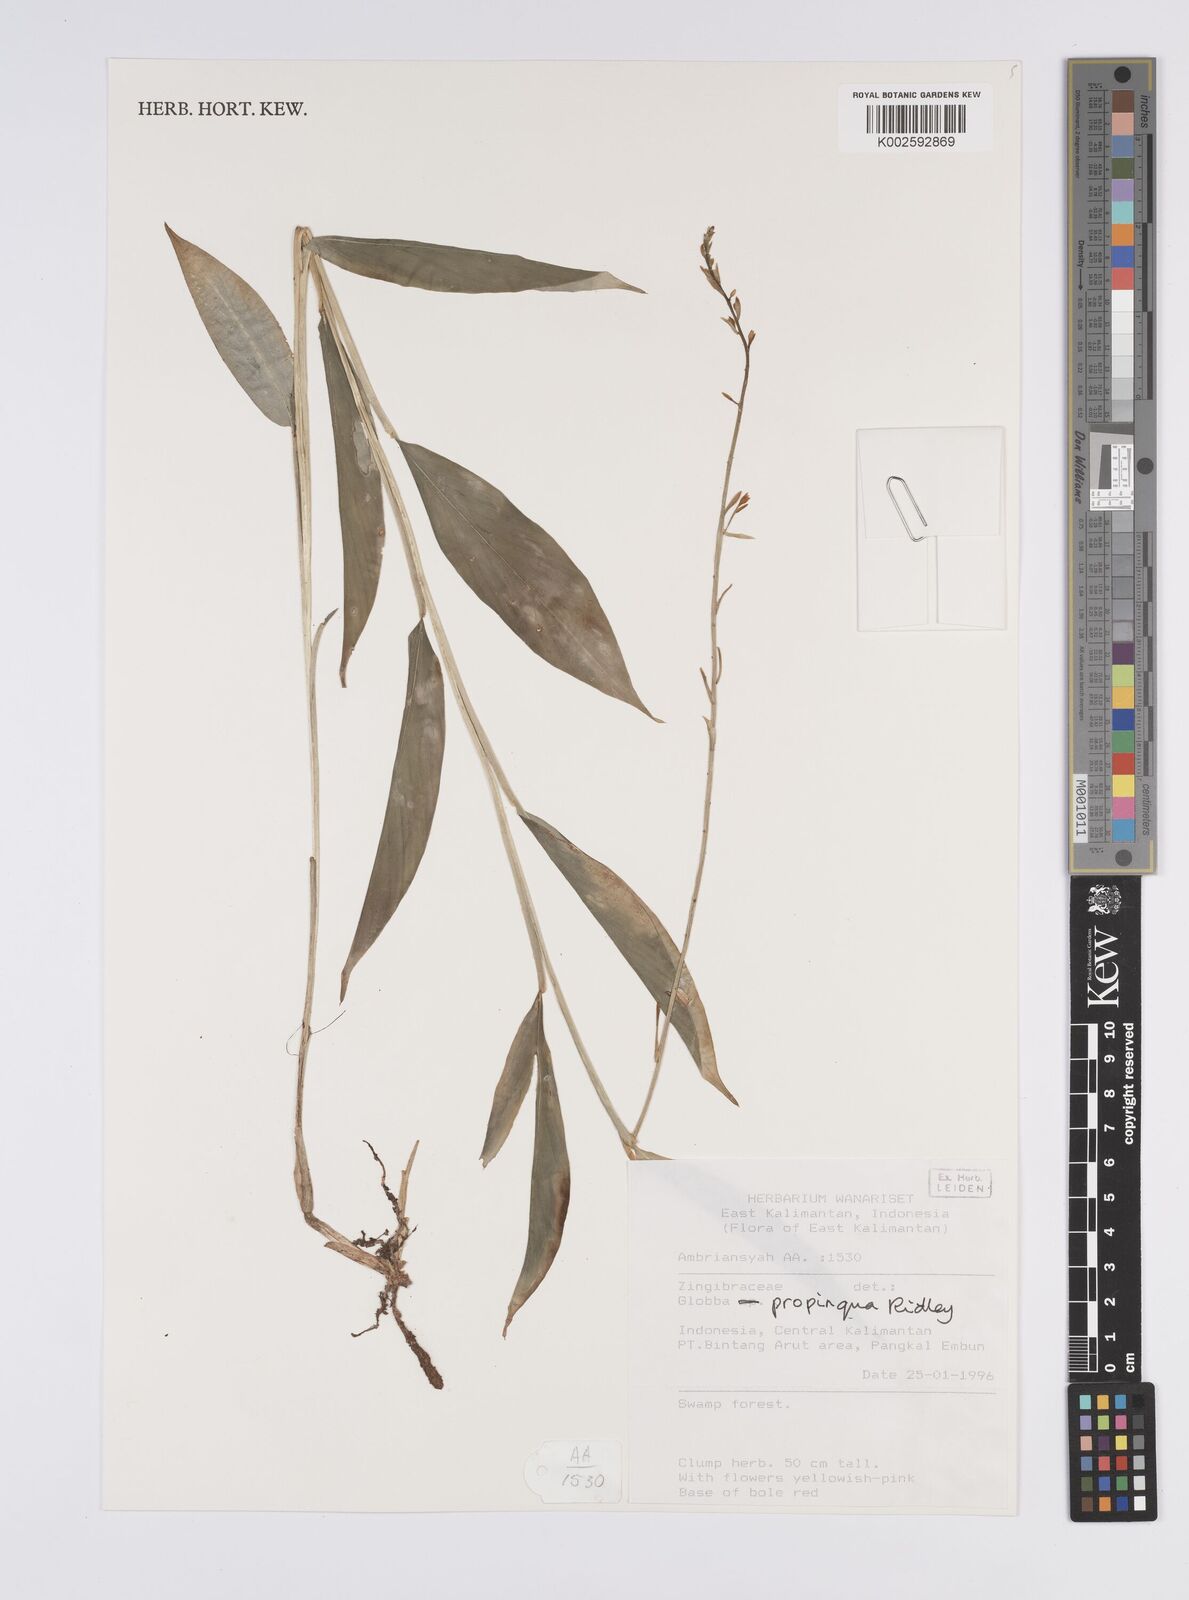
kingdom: Plantae
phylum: Tracheophyta
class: Liliopsida
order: Zingiberales
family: Zingiberaceae
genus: Globba
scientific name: Globba propinqua
